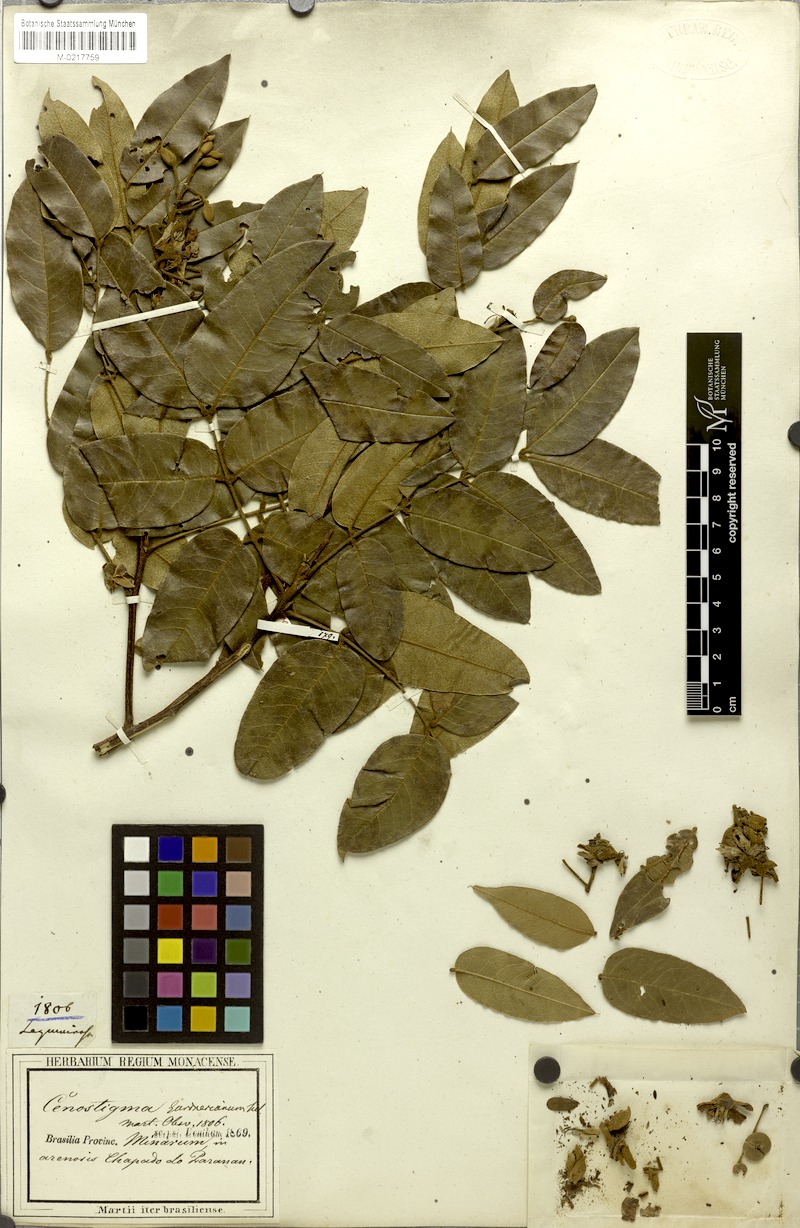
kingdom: Plantae
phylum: Tracheophyta
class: Magnoliopsida
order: Fabales
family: Fabaceae
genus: Cenostigma
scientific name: Cenostigma macrophyllum
